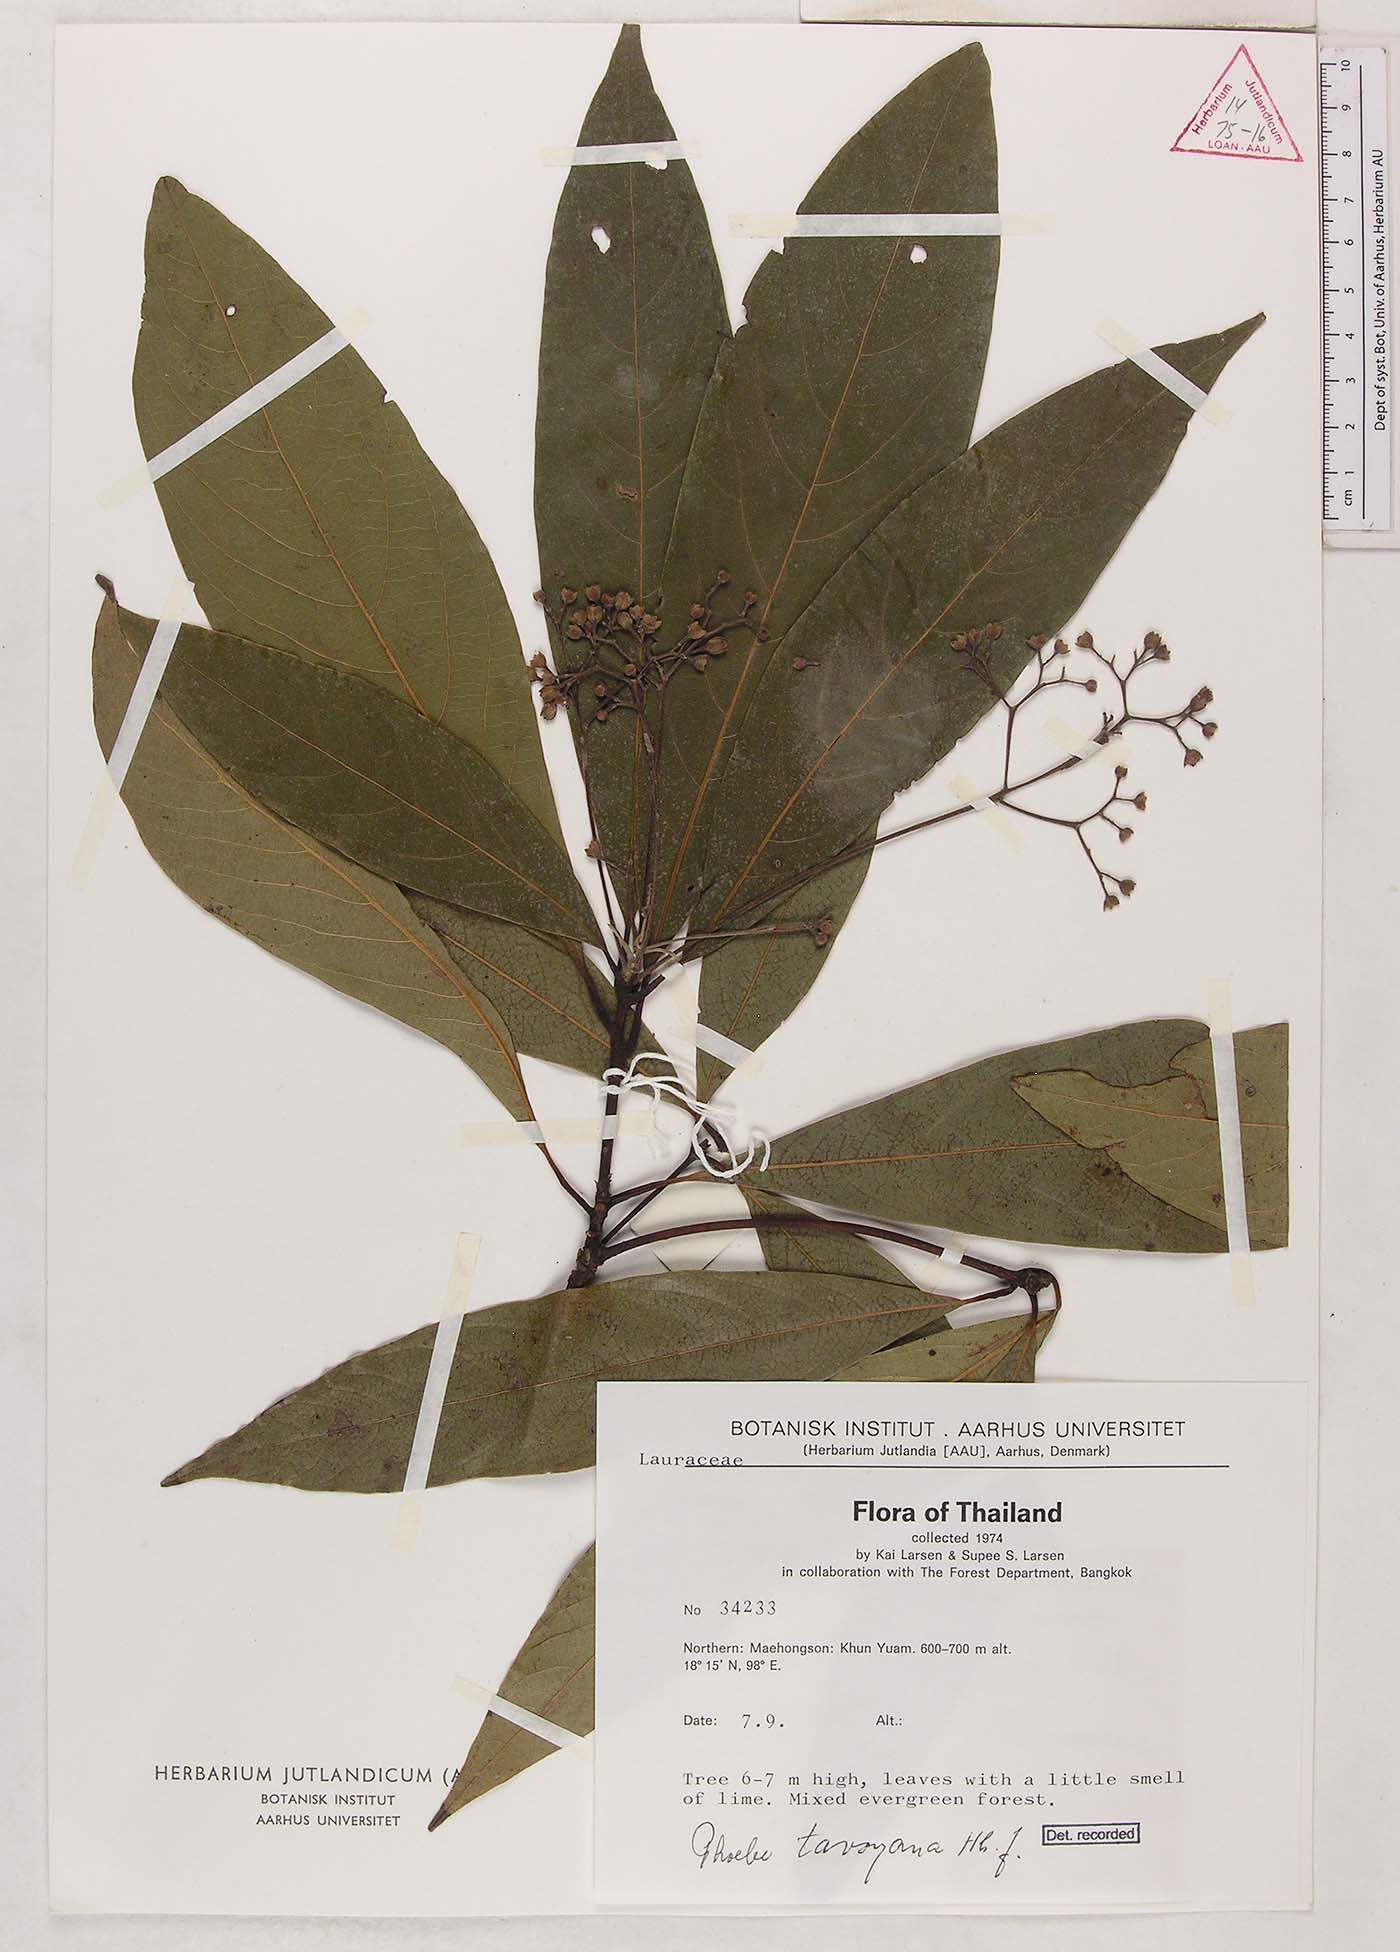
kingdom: Plantae
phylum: Tracheophyta
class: Magnoliopsida
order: Laurales
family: Lauraceae
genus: Phoebe
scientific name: Phoebe tavoyana
